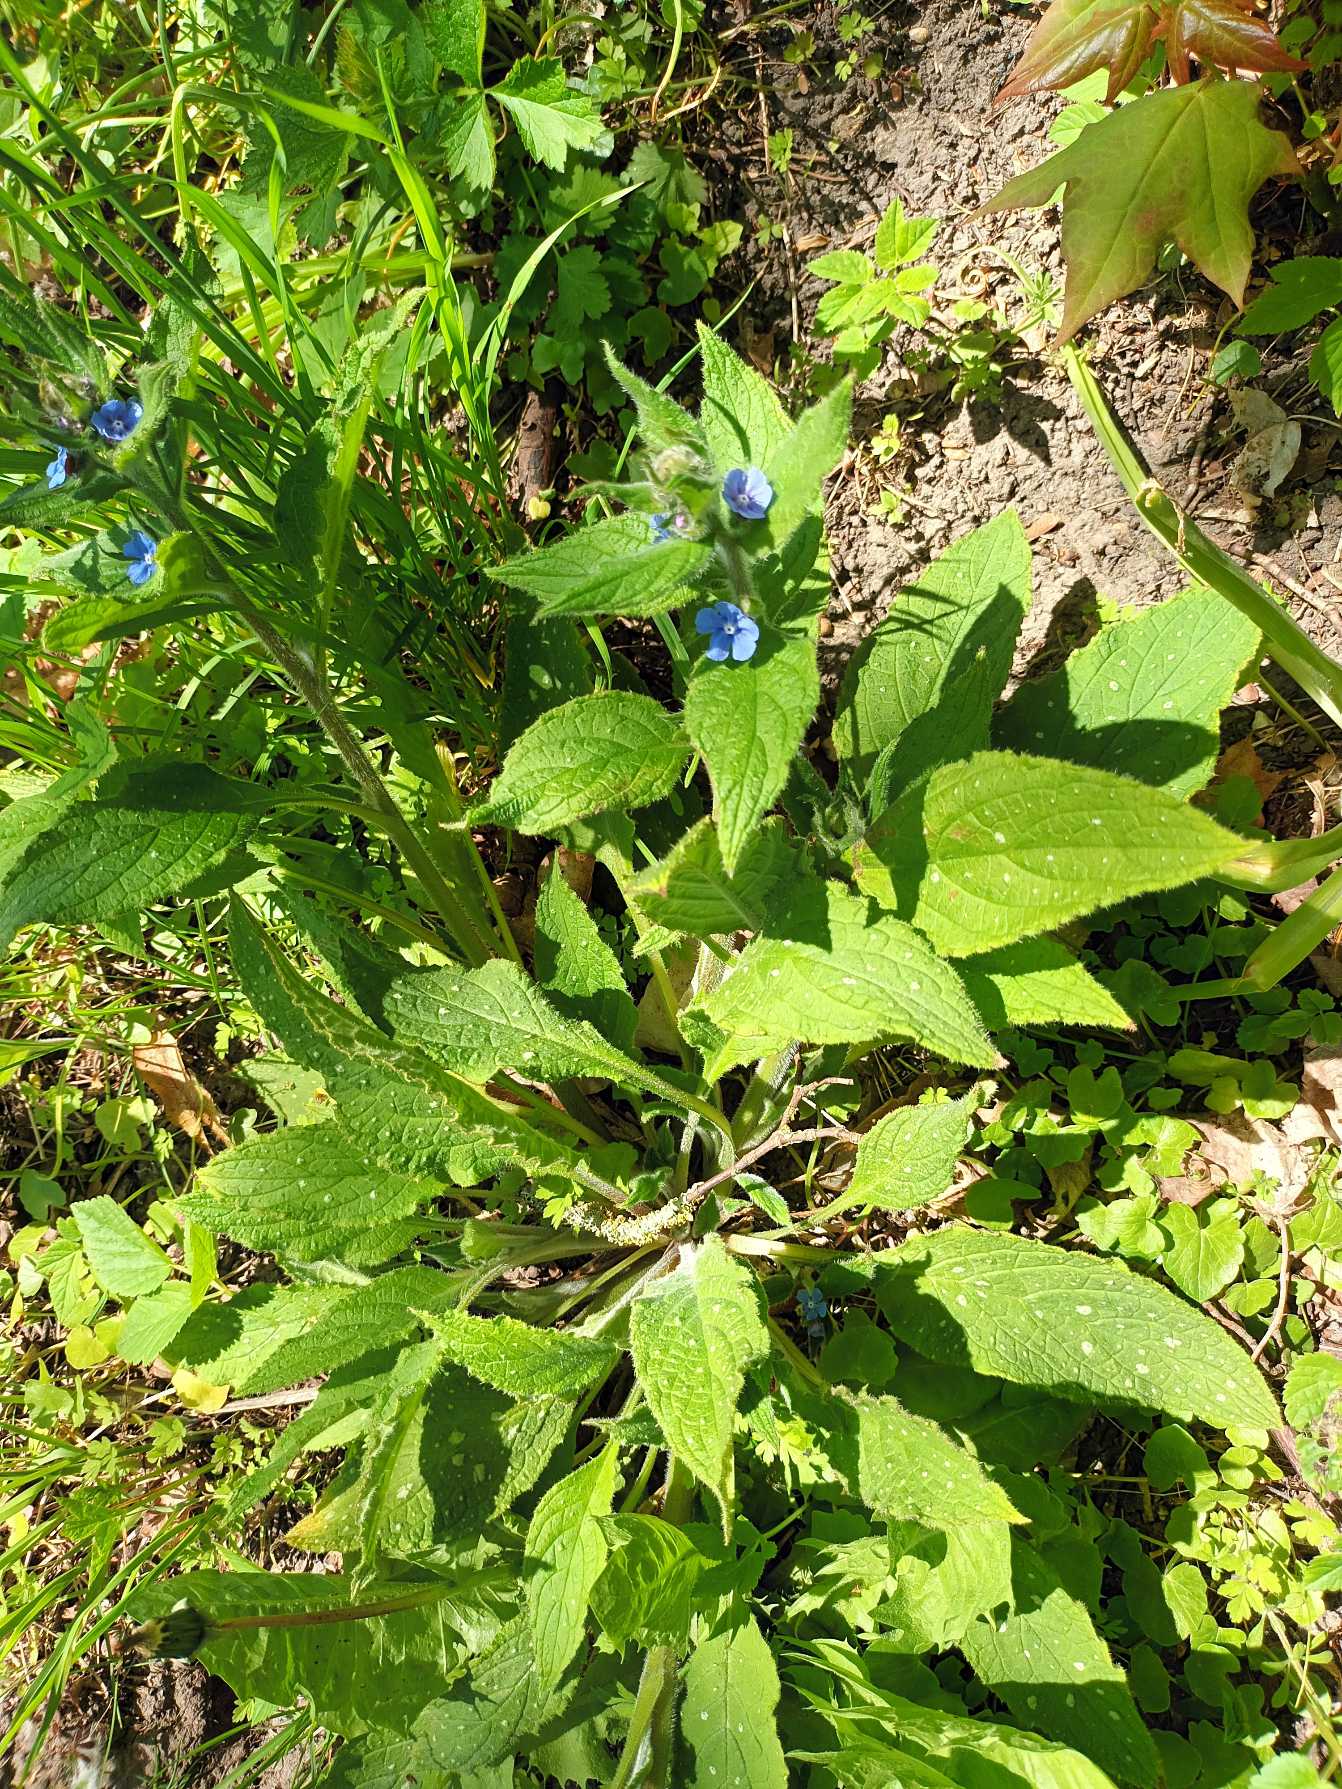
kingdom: Plantae
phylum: Tracheophyta
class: Magnoliopsida
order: Boraginales
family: Boraginaceae
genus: Pentaglottis
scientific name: Pentaglottis sempervirens
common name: Femtunge
